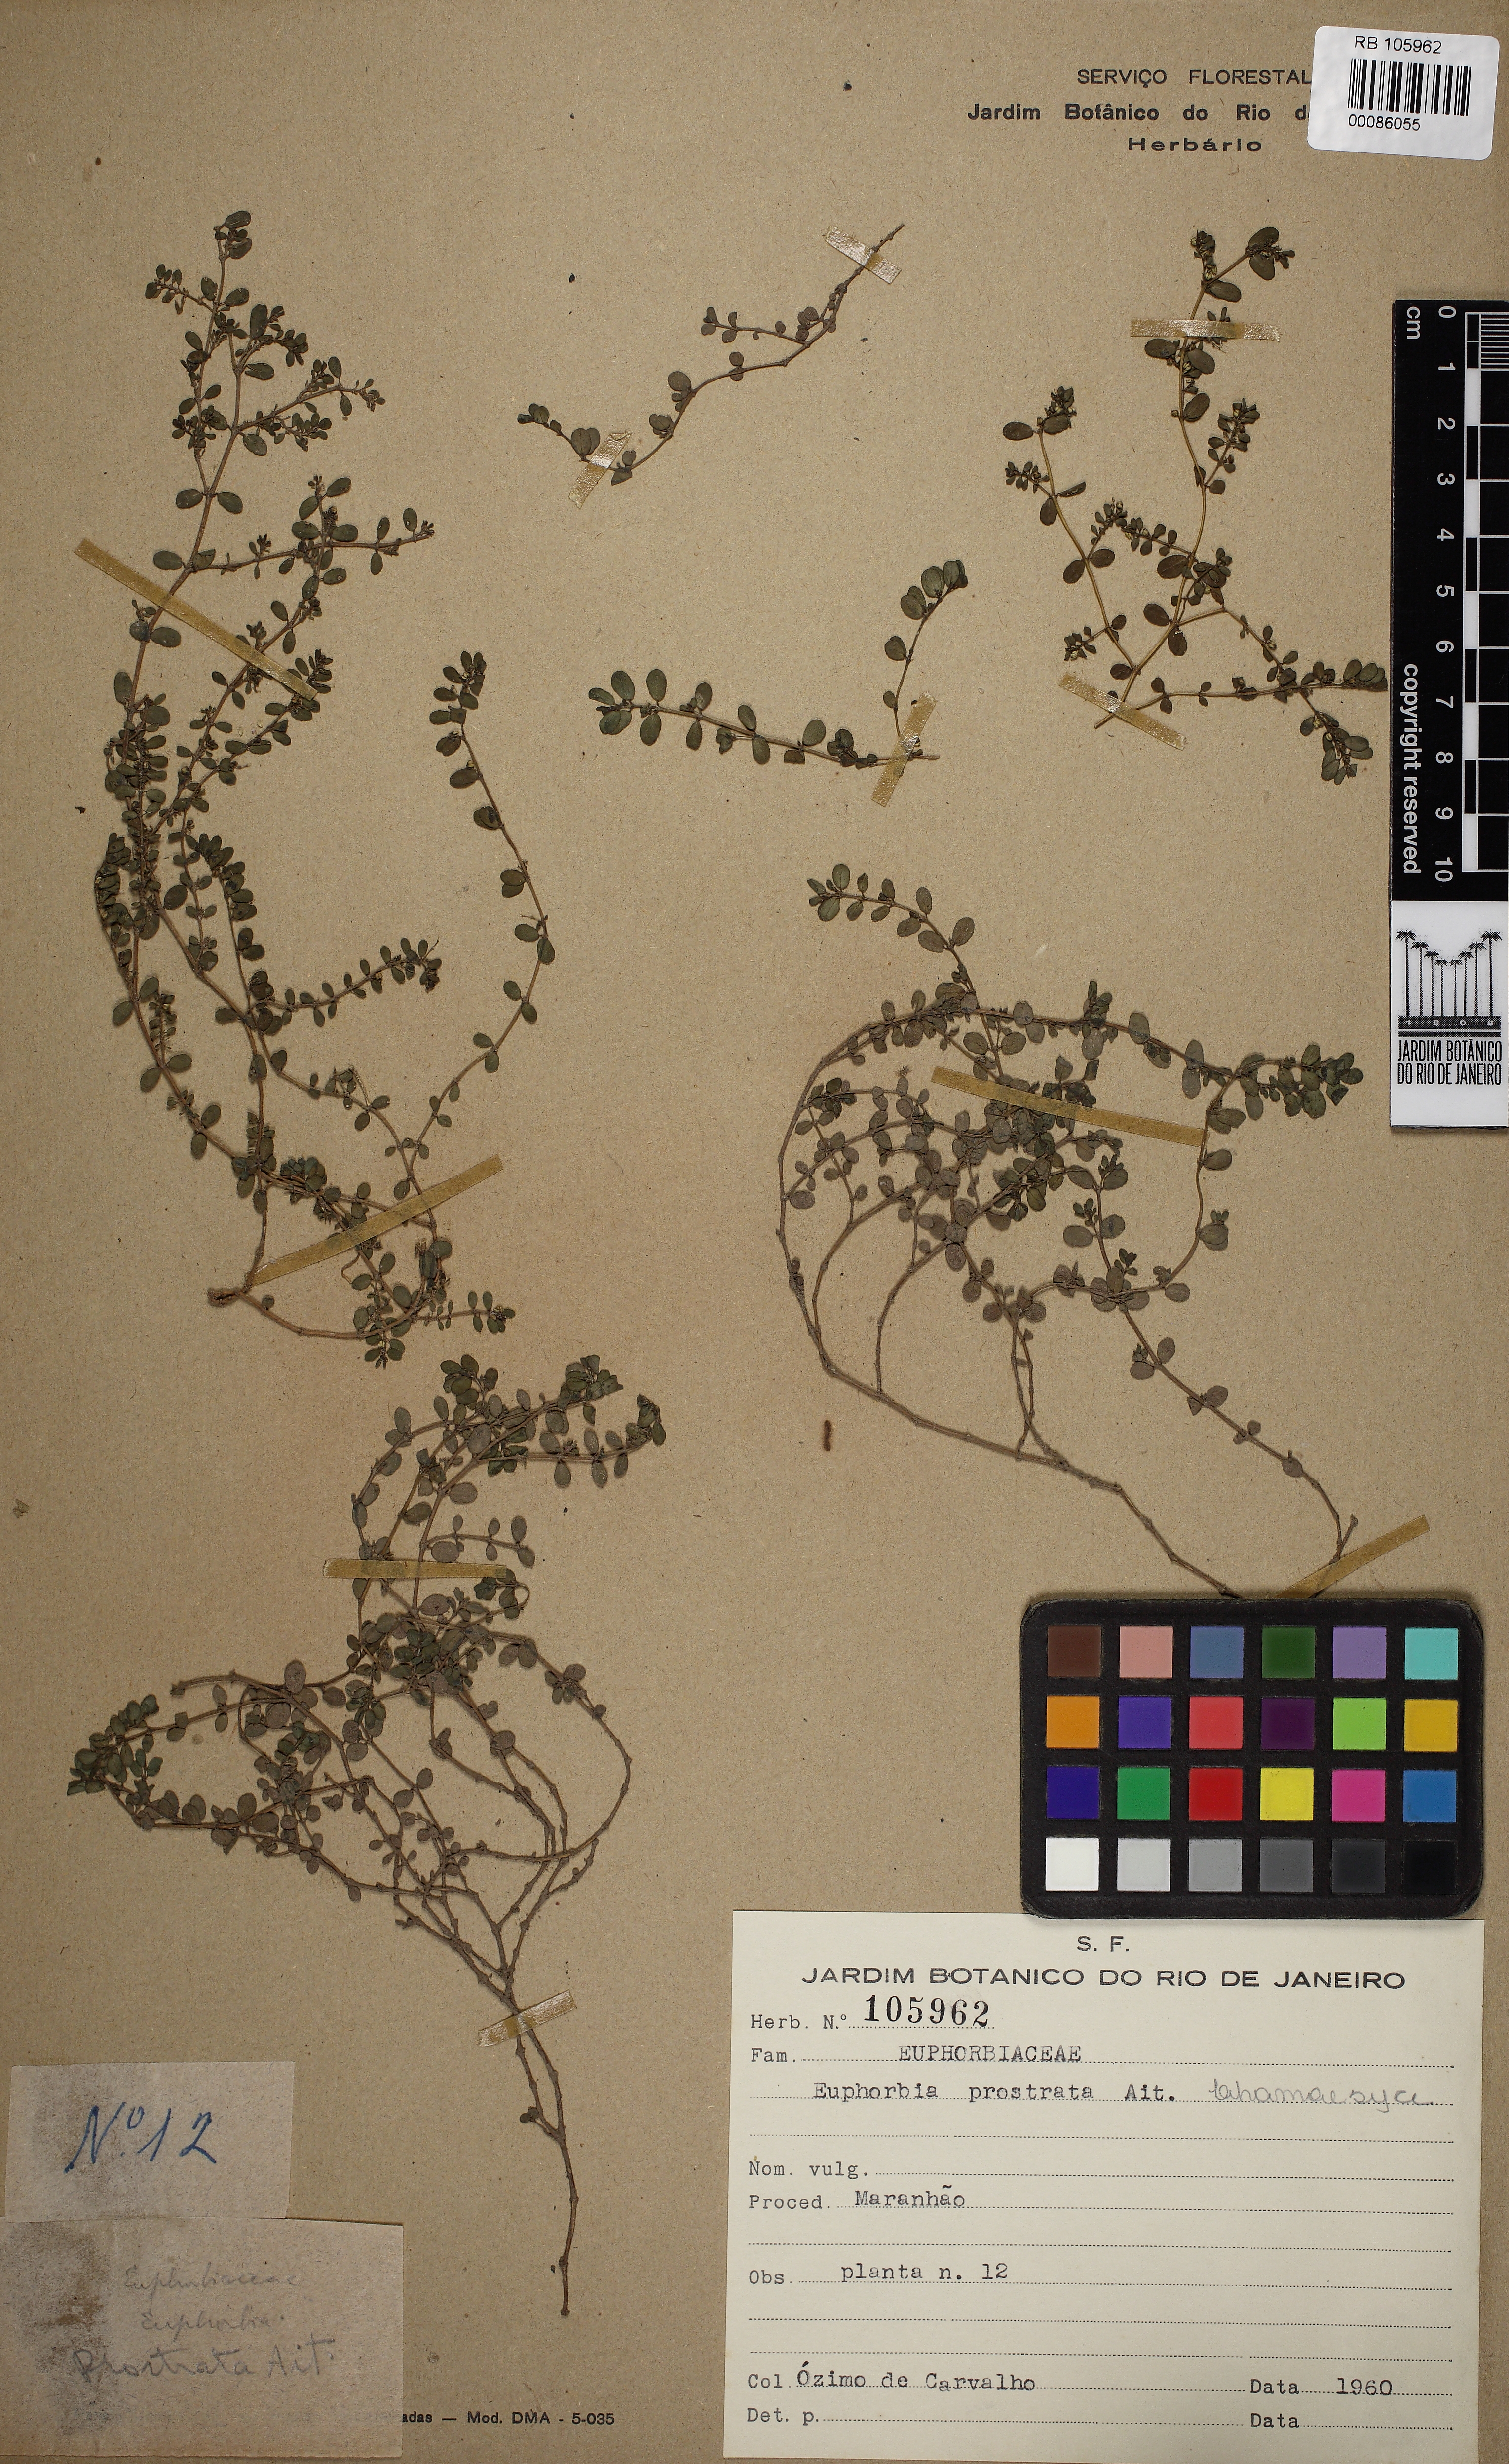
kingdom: Plantae
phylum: Tracheophyta
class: Magnoliopsida
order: Malpighiales
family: Euphorbiaceae
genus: Euphorbia
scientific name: Euphorbia chamaesyce
